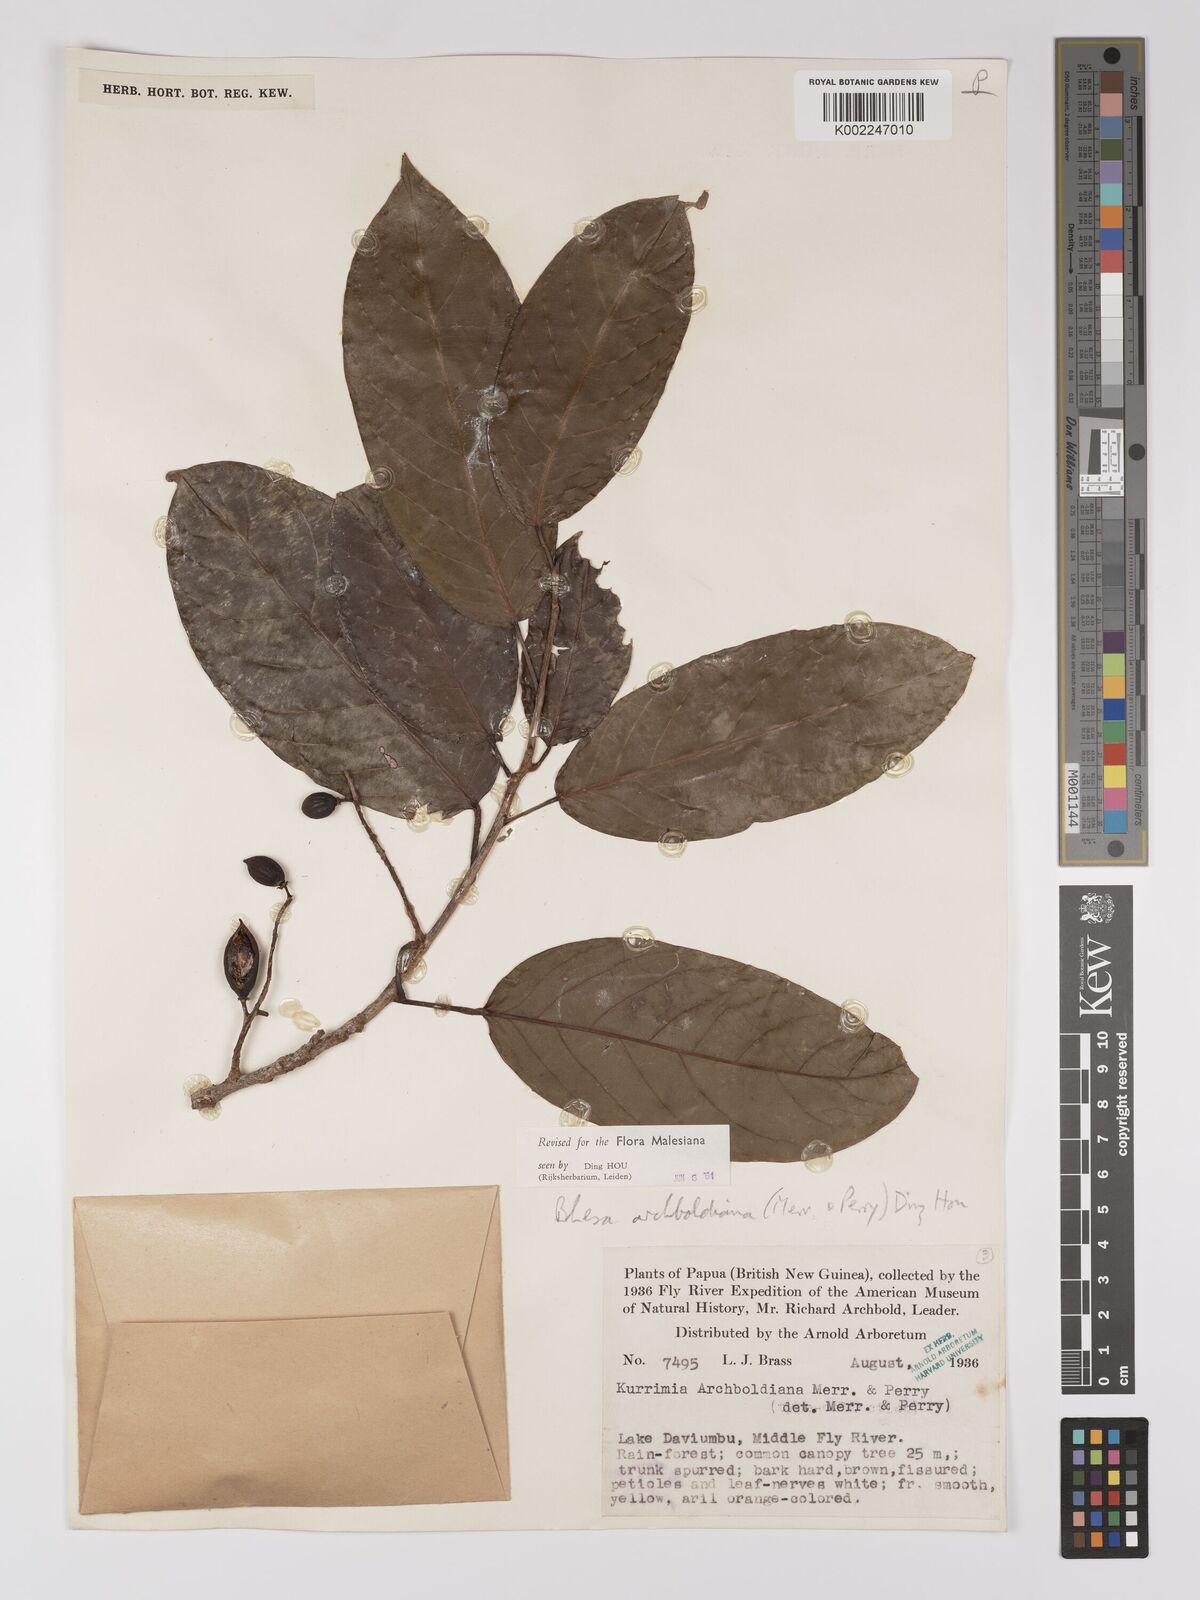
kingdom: Plantae
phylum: Tracheophyta
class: Magnoliopsida
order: Malpighiales
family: Centroplacaceae
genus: Bhesa
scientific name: Bhesa archboldiana
